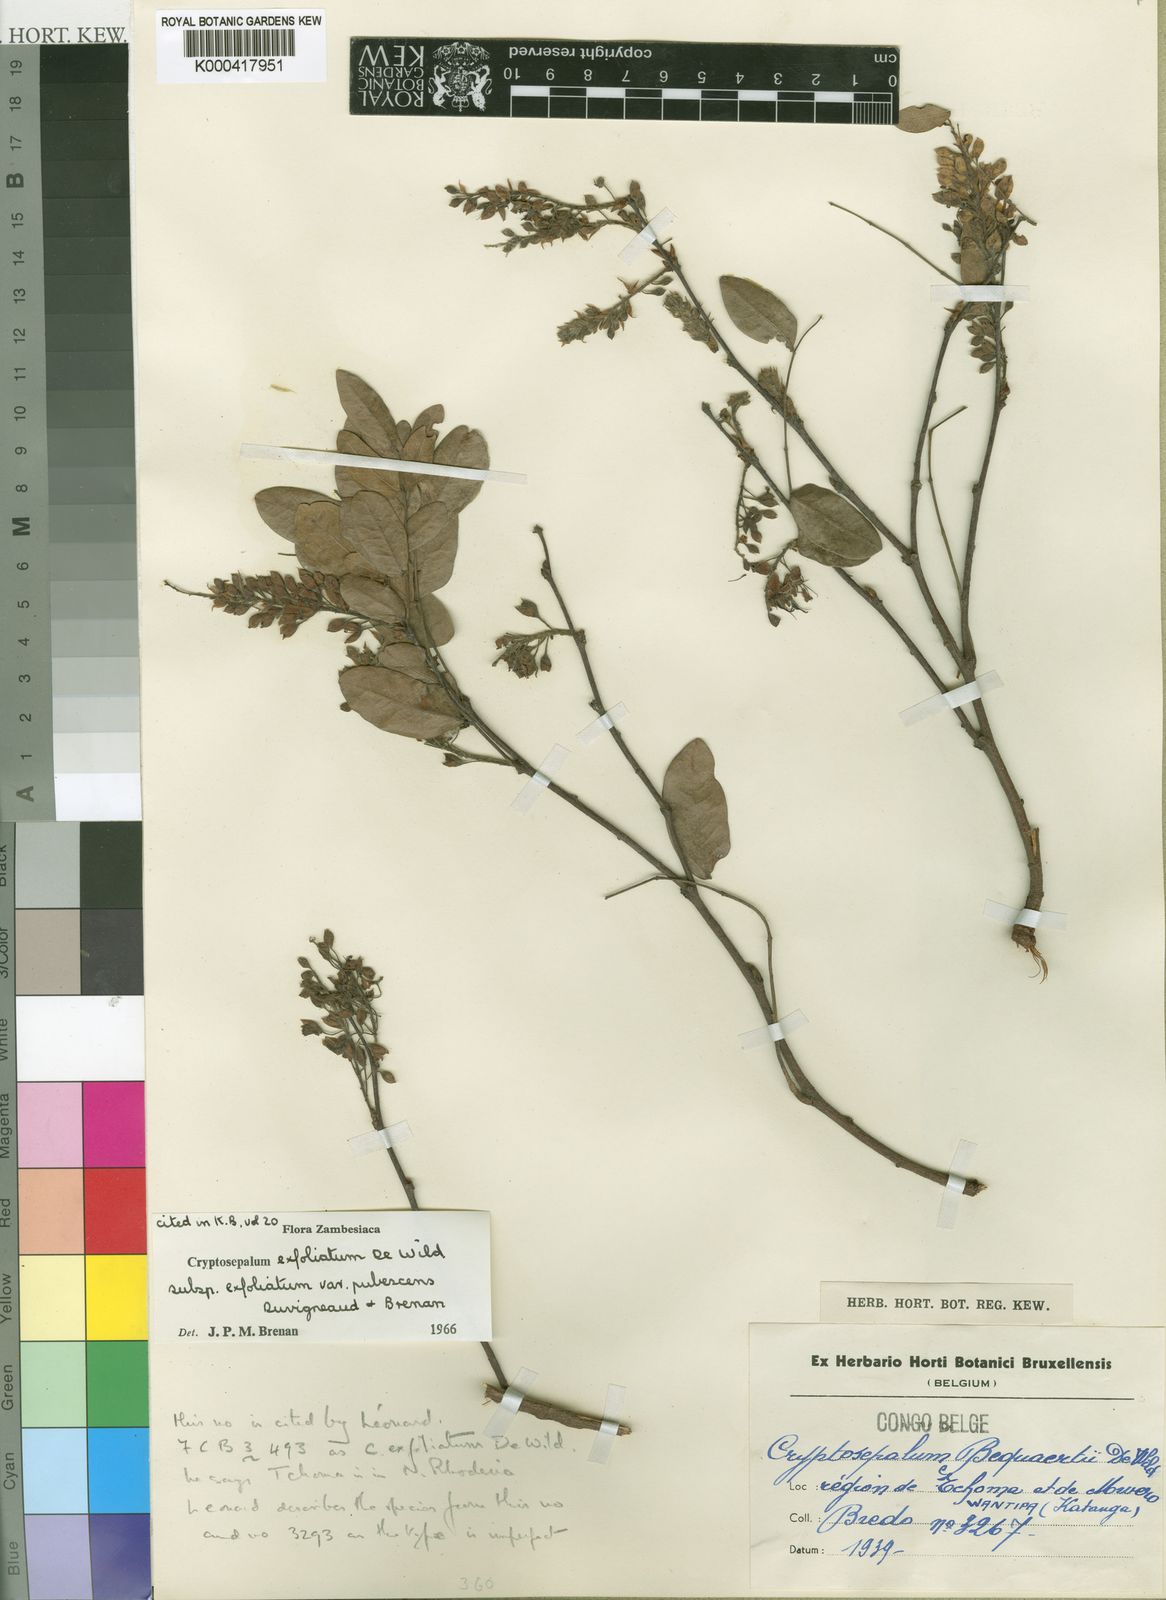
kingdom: Plantae
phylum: Tracheophyta
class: Magnoliopsida
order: Fabales
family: Fabaceae
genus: Cryptosepalum
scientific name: Cryptosepalum exfoliatum
